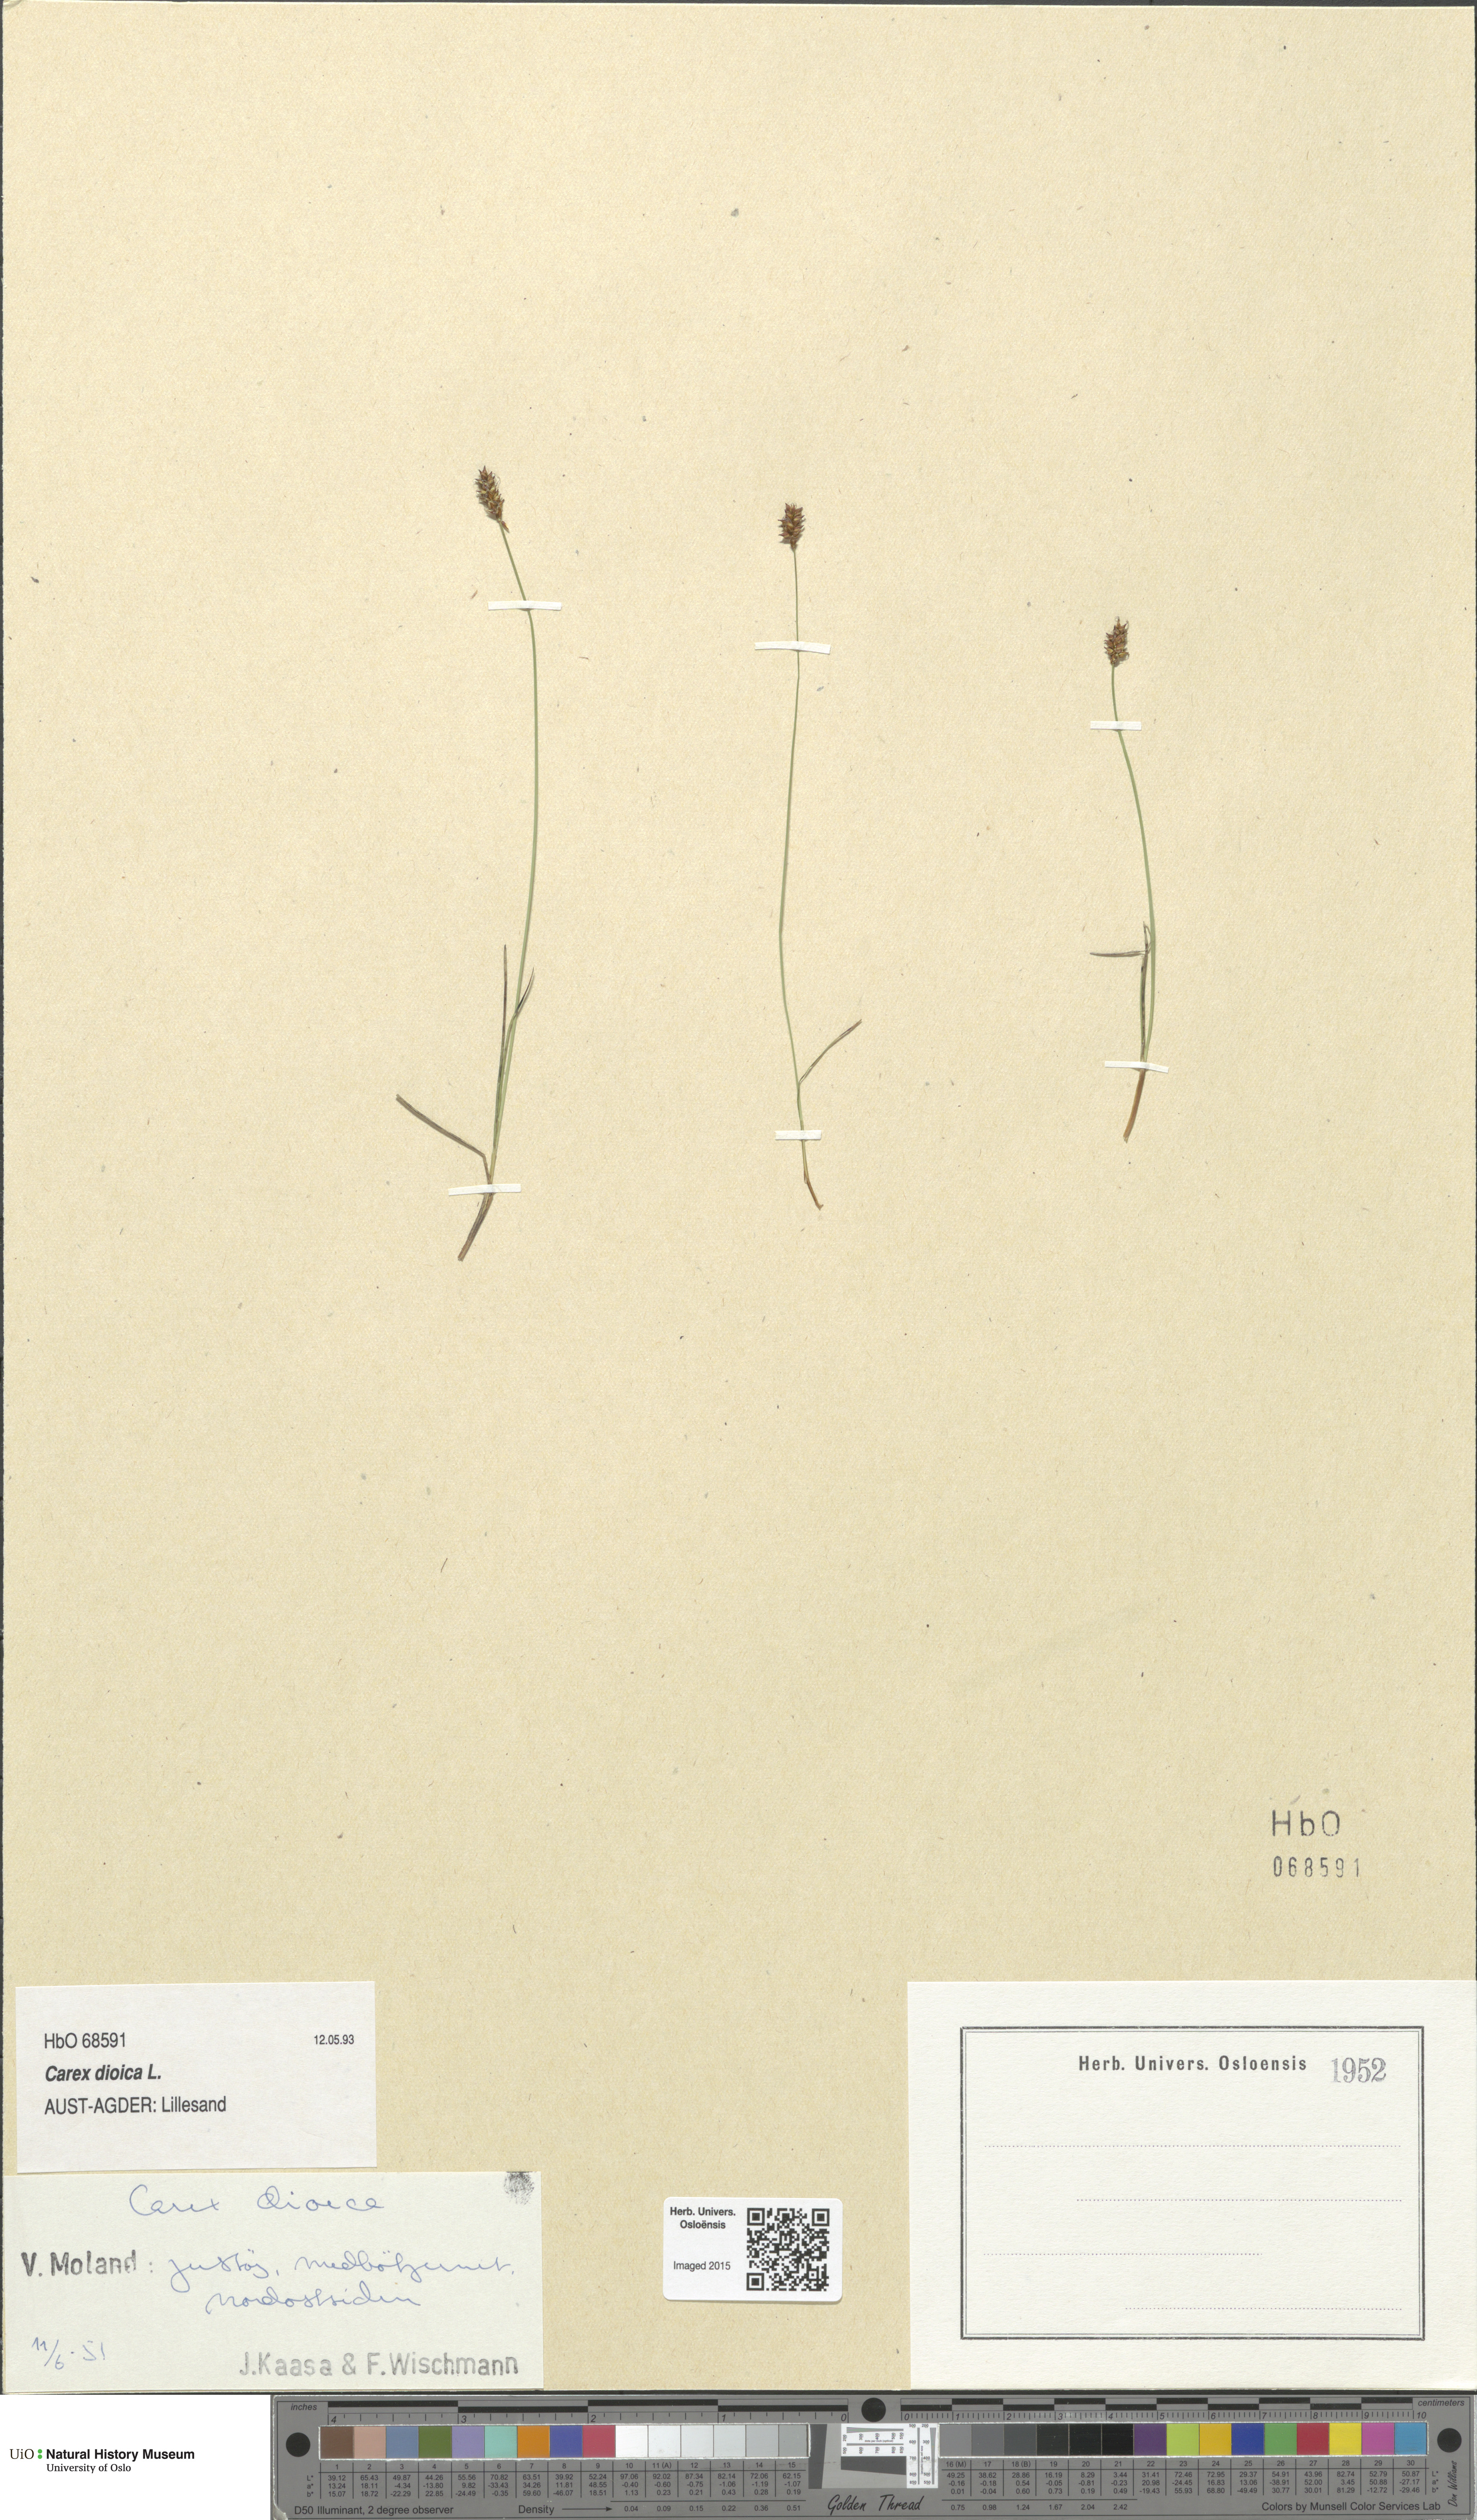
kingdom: Plantae
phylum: Tracheophyta
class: Liliopsida
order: Poales
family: Cyperaceae
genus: Carex
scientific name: Carex dioica
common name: Dioecious sedge
